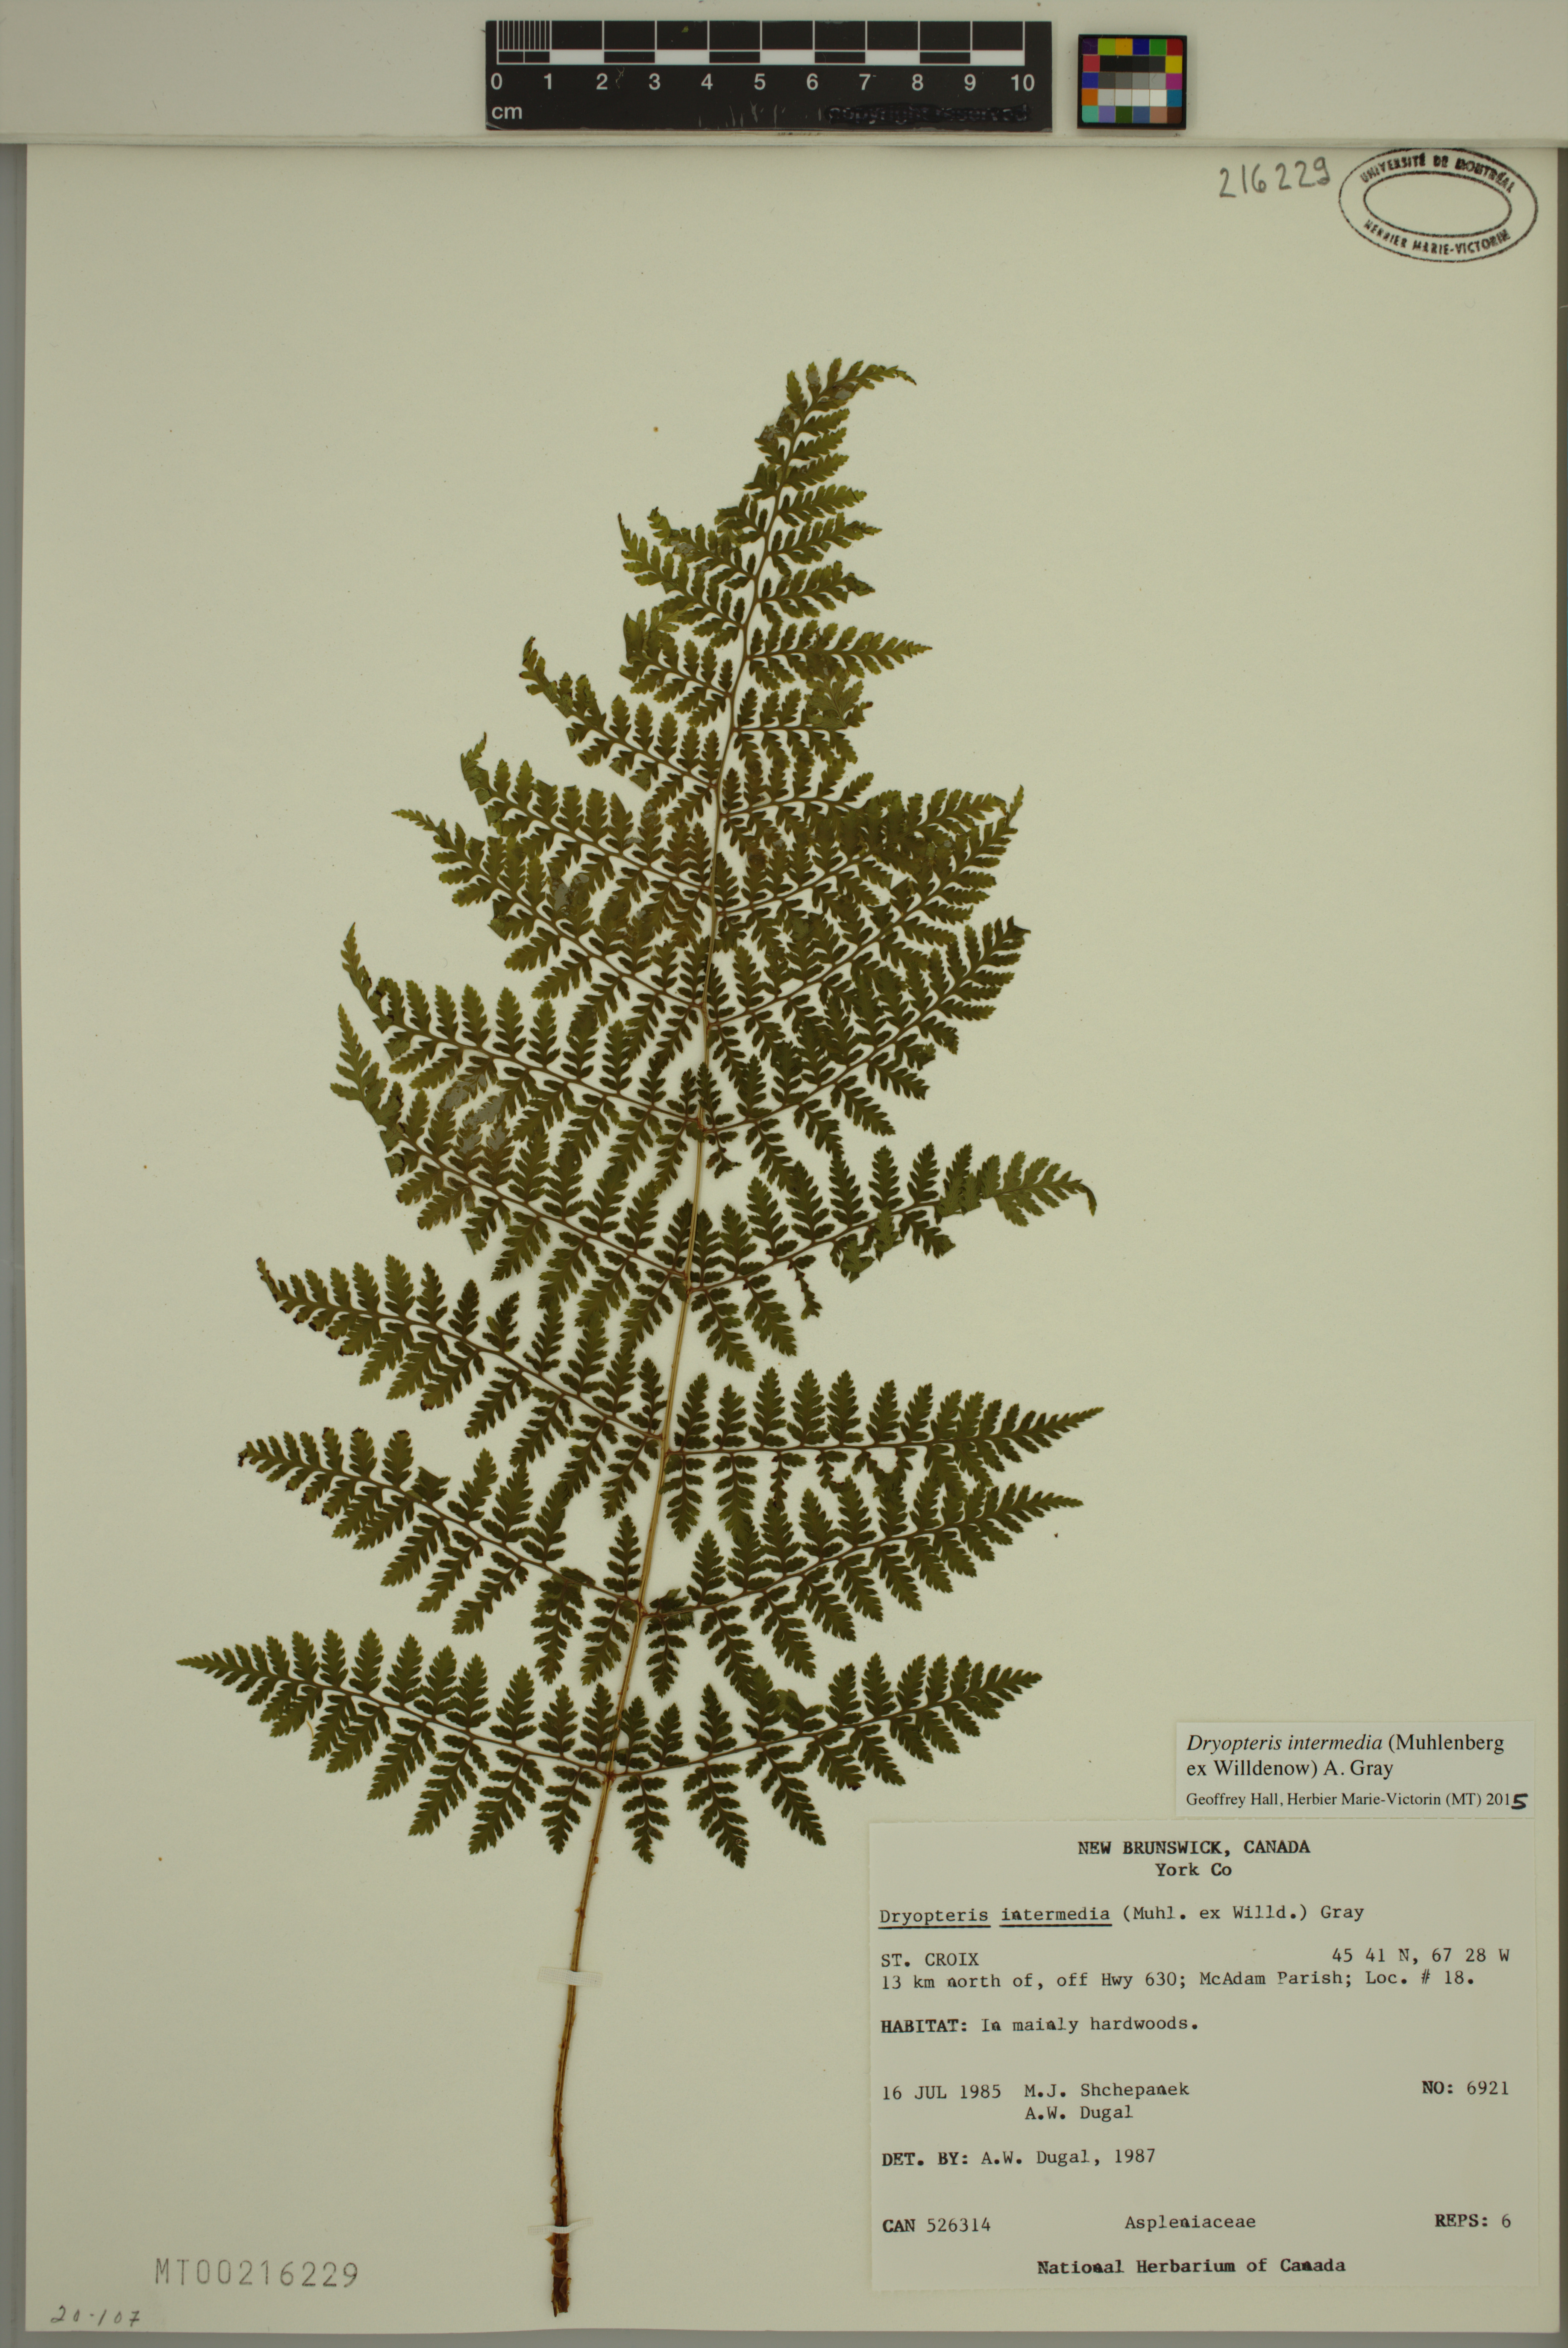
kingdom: Plantae
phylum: Tracheophyta
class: Polypodiopsida
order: Polypodiales
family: Dryopteridaceae
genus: Dryopteris
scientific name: Dryopteris intermedia
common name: Evergreen wood fern
